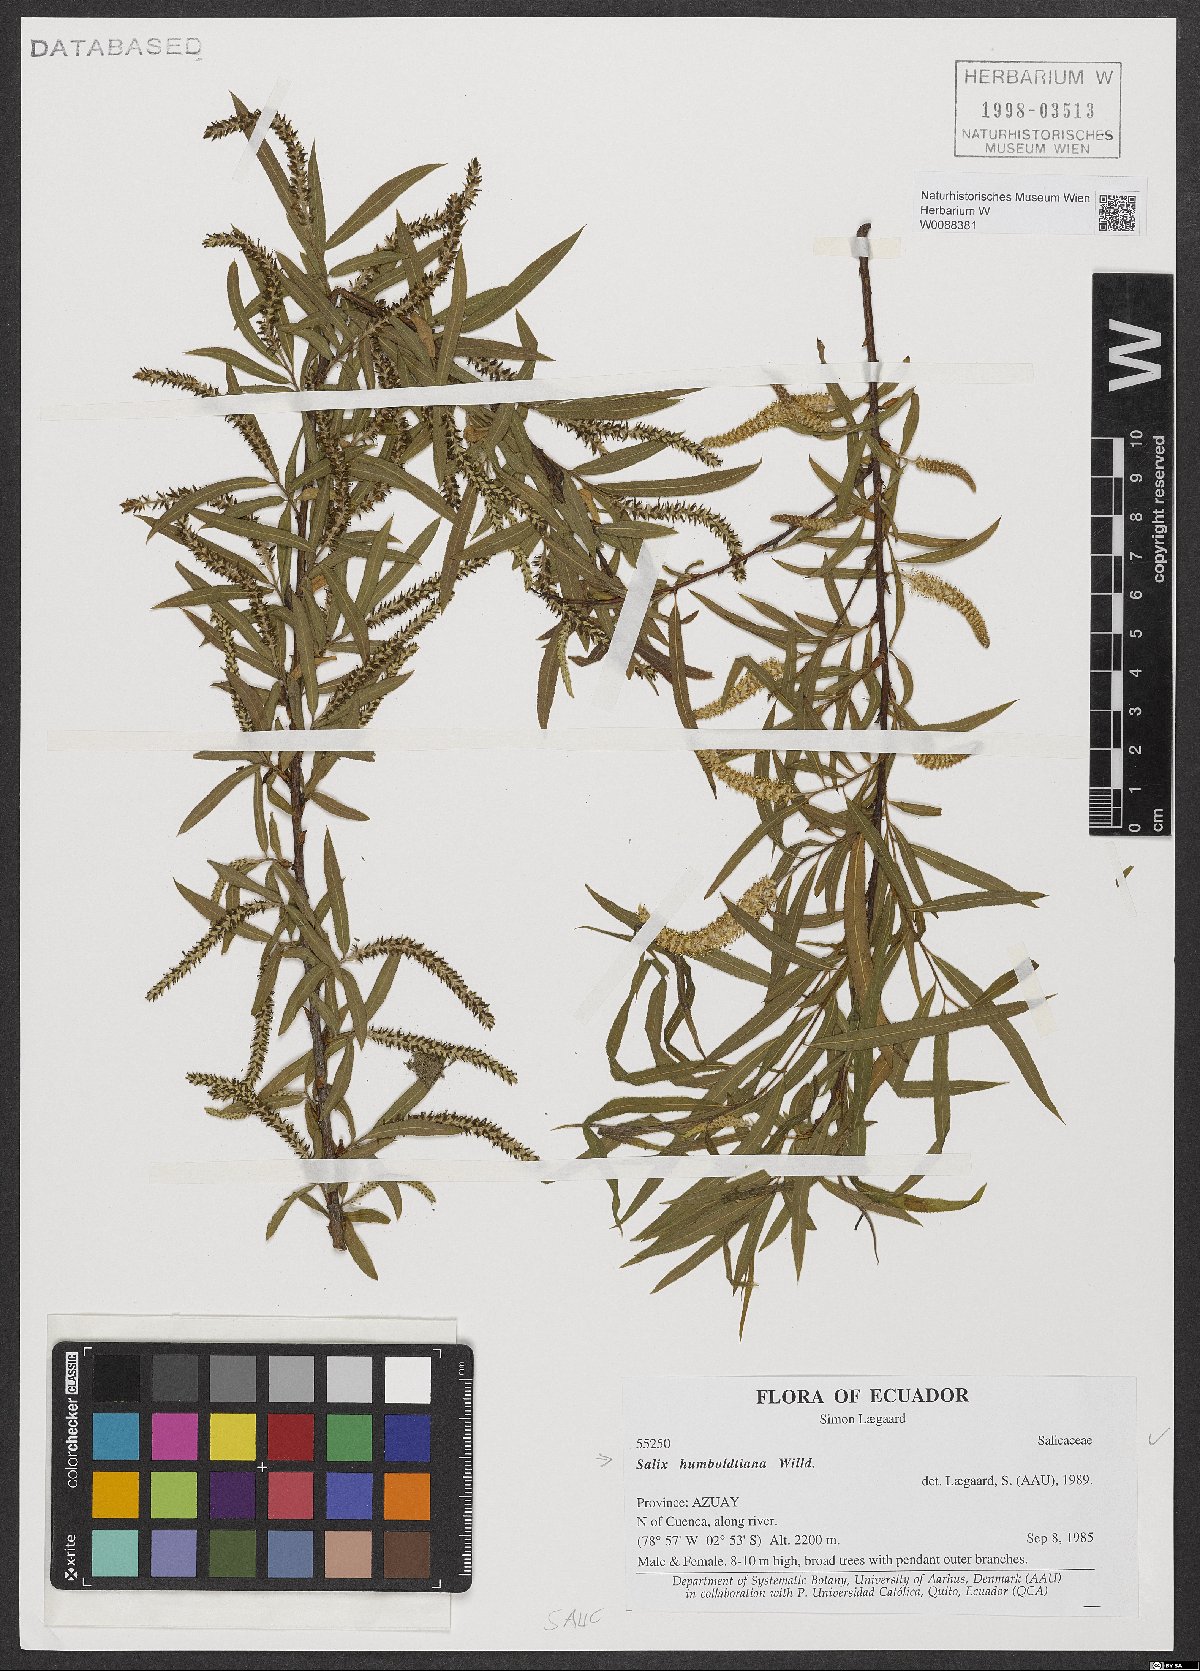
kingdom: Plantae
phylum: Tracheophyta
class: Magnoliopsida
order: Malpighiales
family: Salicaceae
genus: Salix
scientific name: Salix humboldtiana
